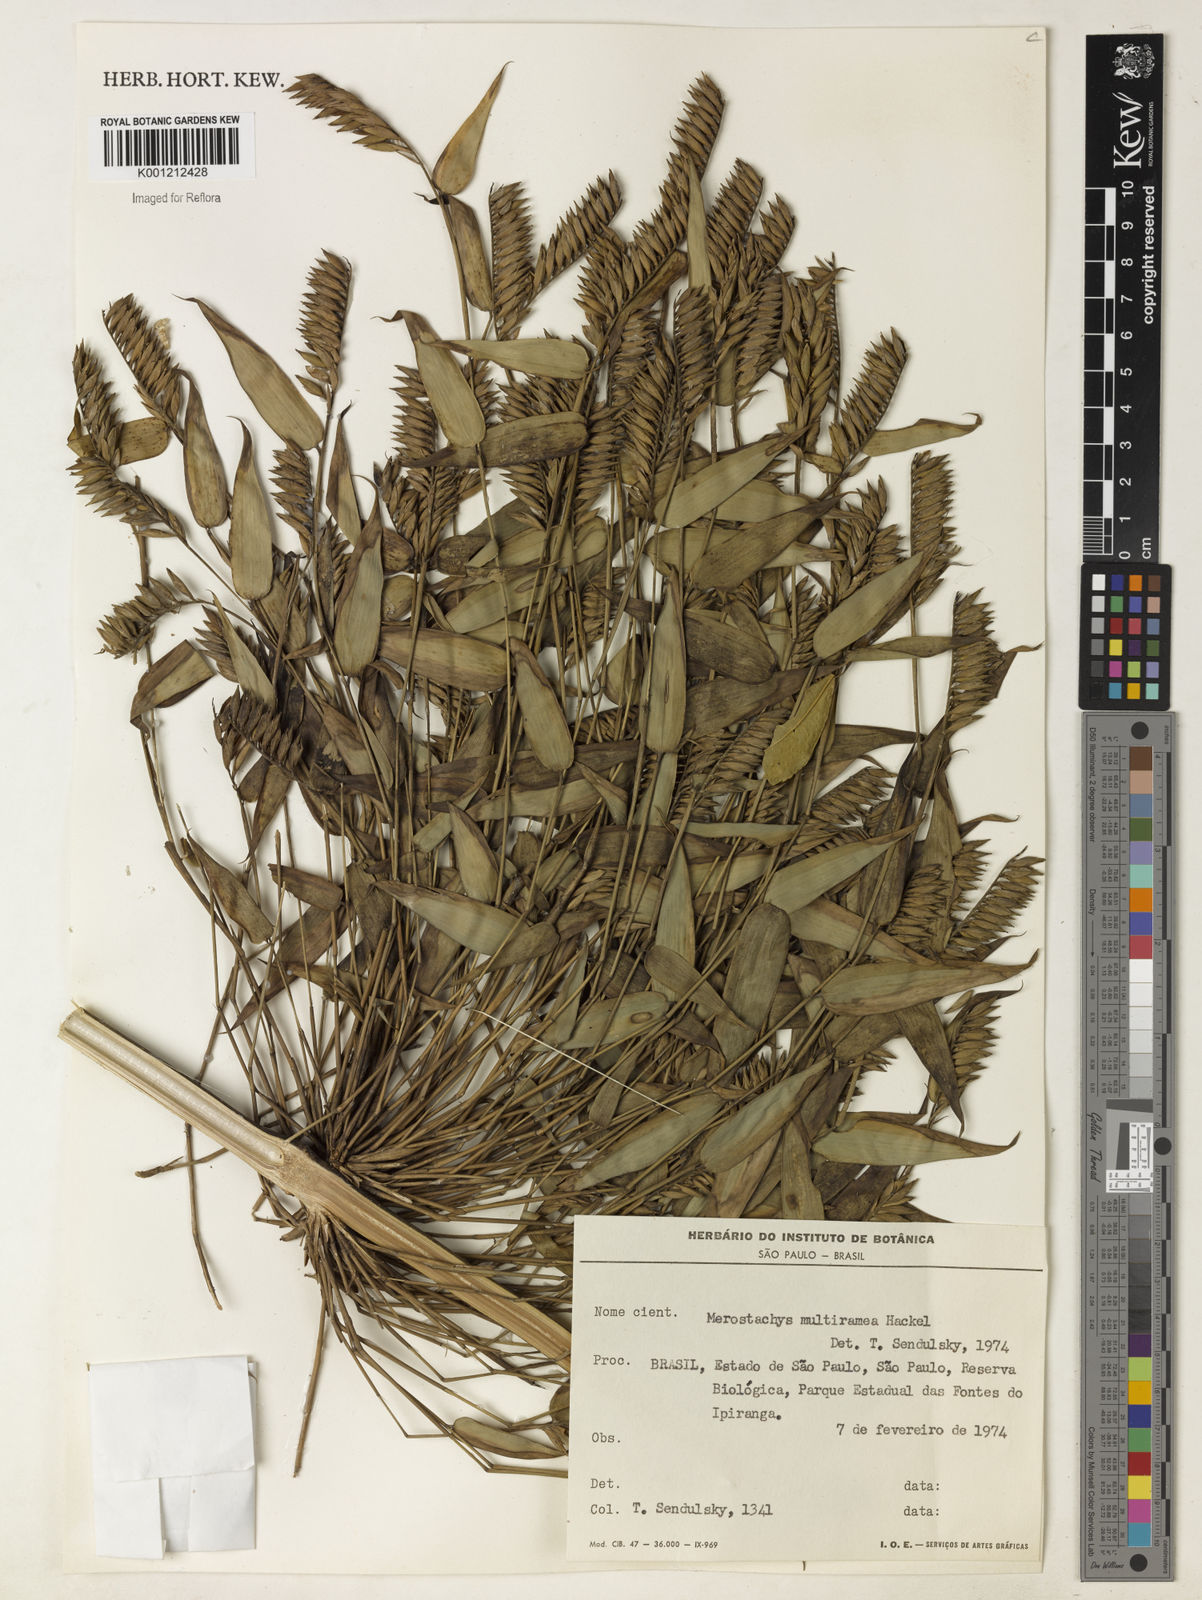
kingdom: Plantae
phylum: Tracheophyta
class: Liliopsida
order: Poales
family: Poaceae
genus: Merostachys
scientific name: Merostachys multiramea
